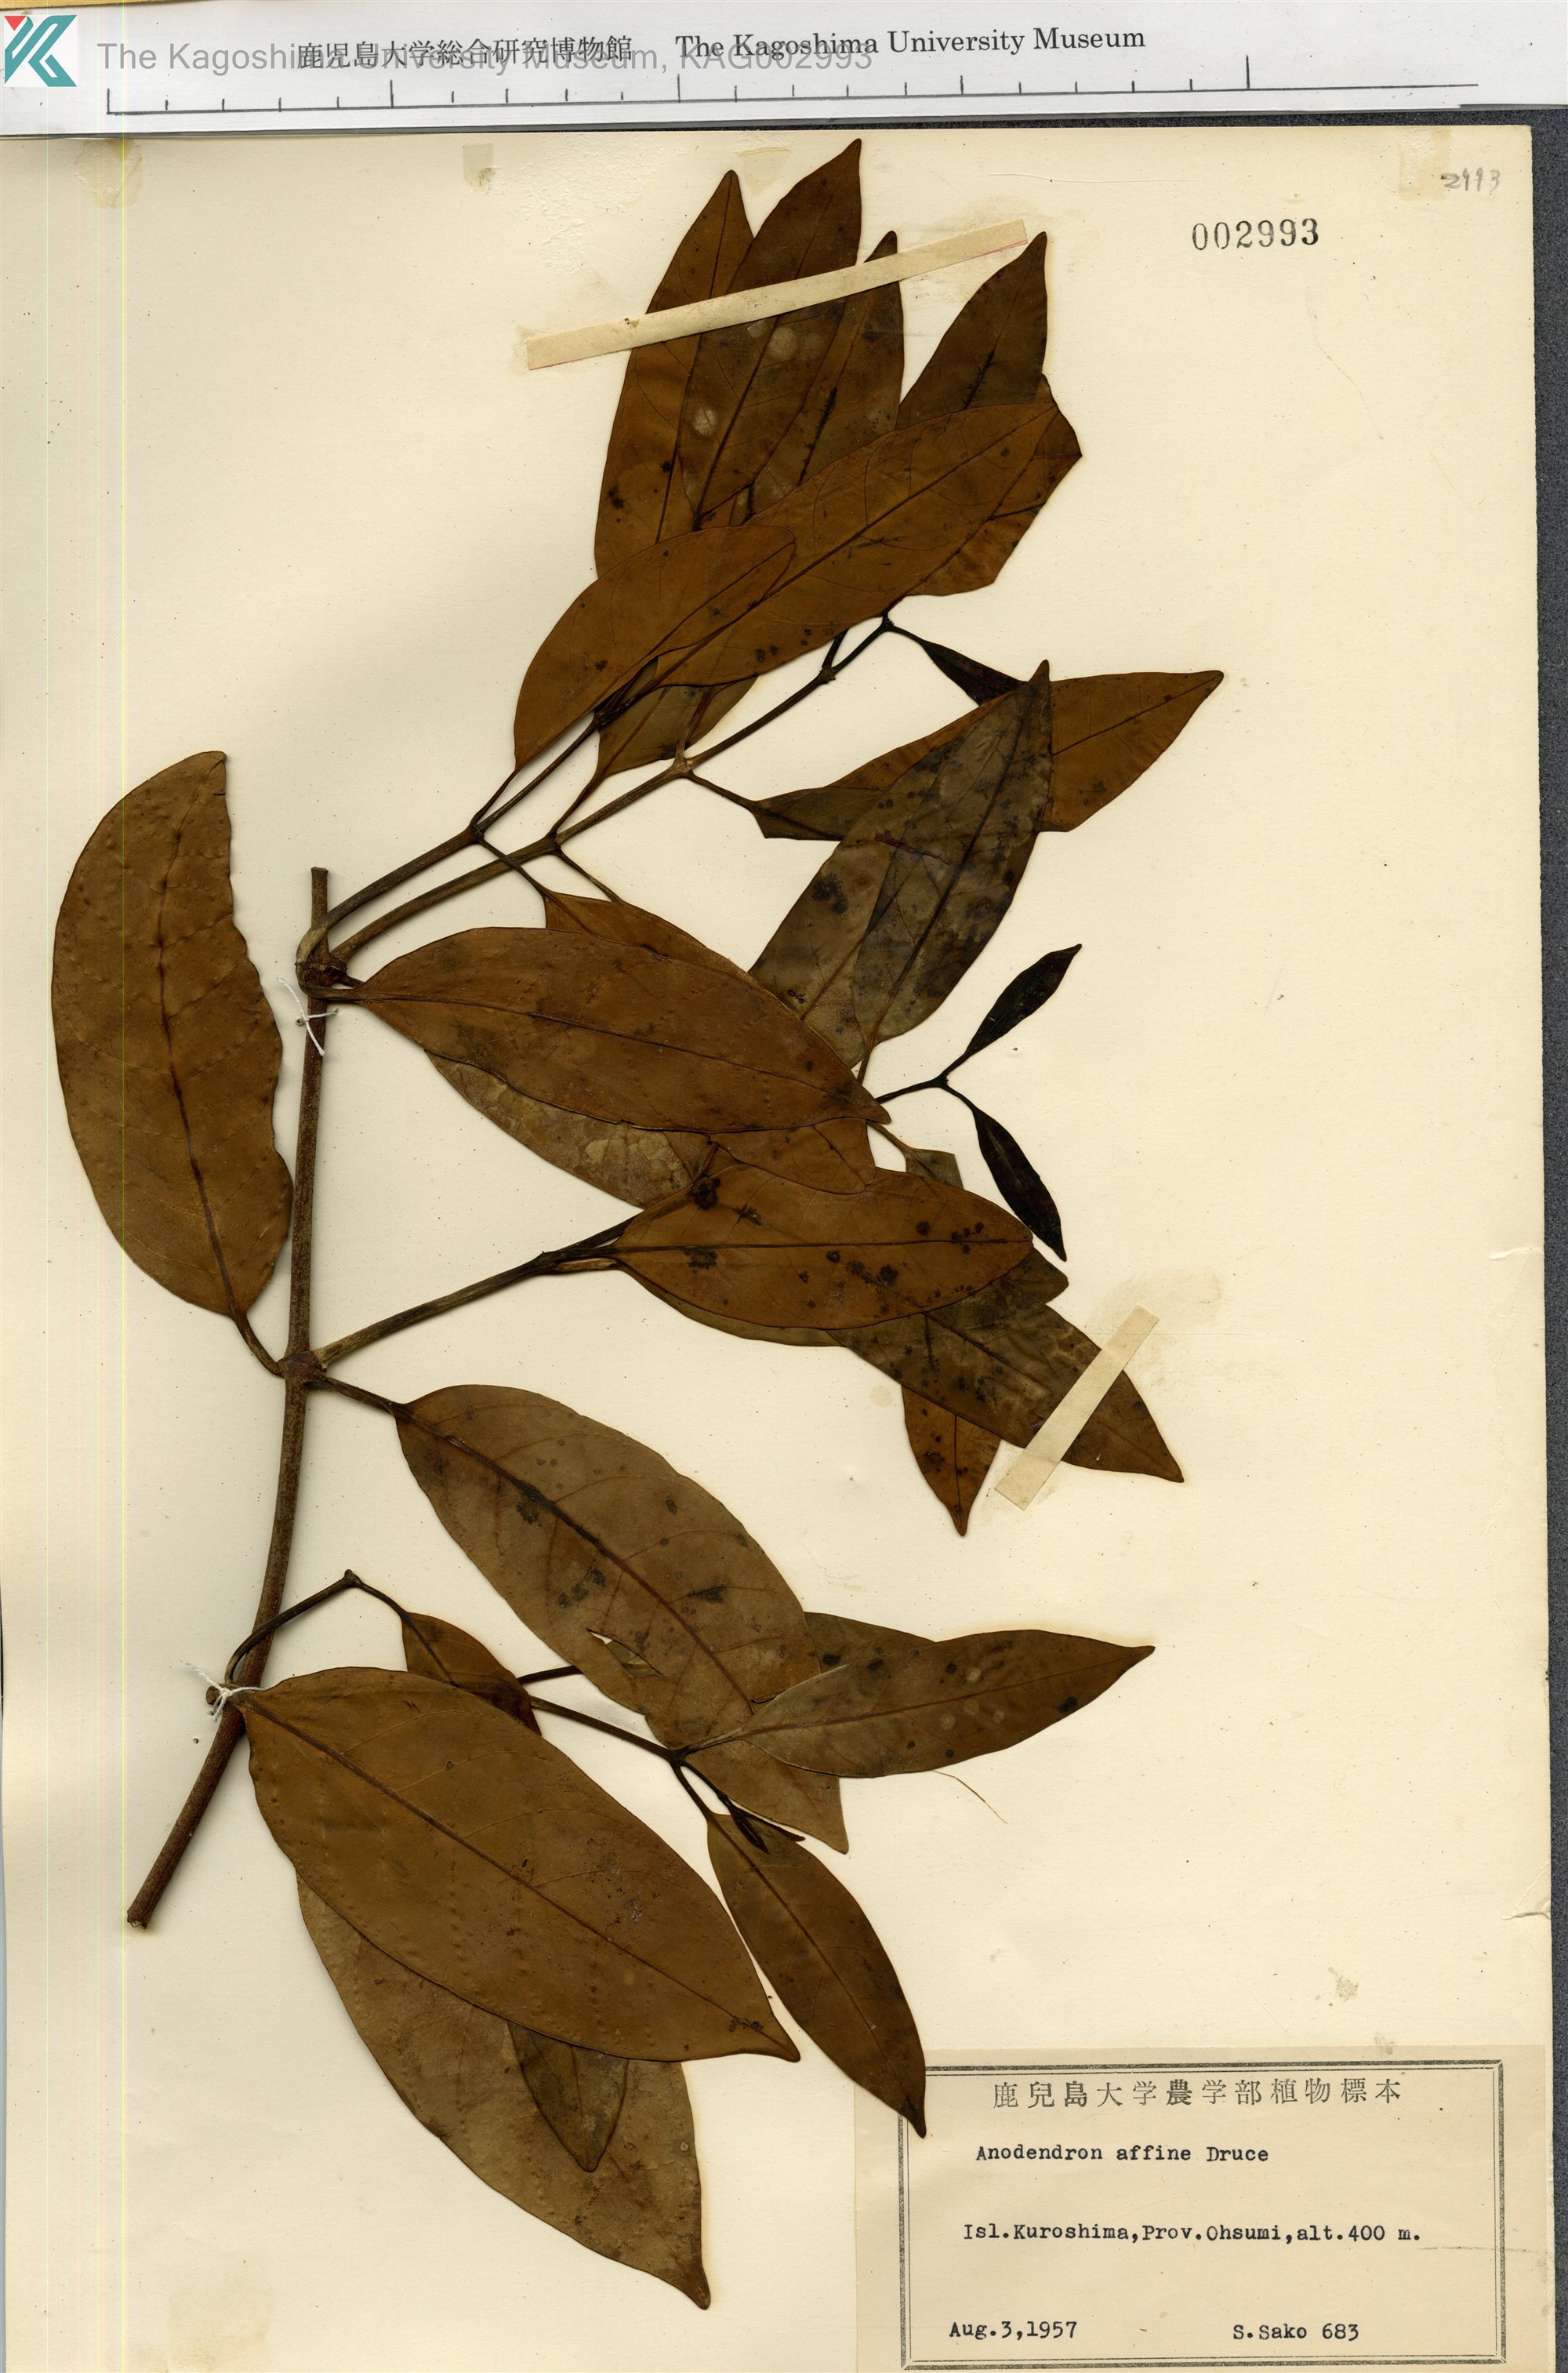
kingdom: Plantae
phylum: Tracheophyta
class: Magnoliopsida
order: Gentianales
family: Apocynaceae
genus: Anodendron
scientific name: Anodendron affine
